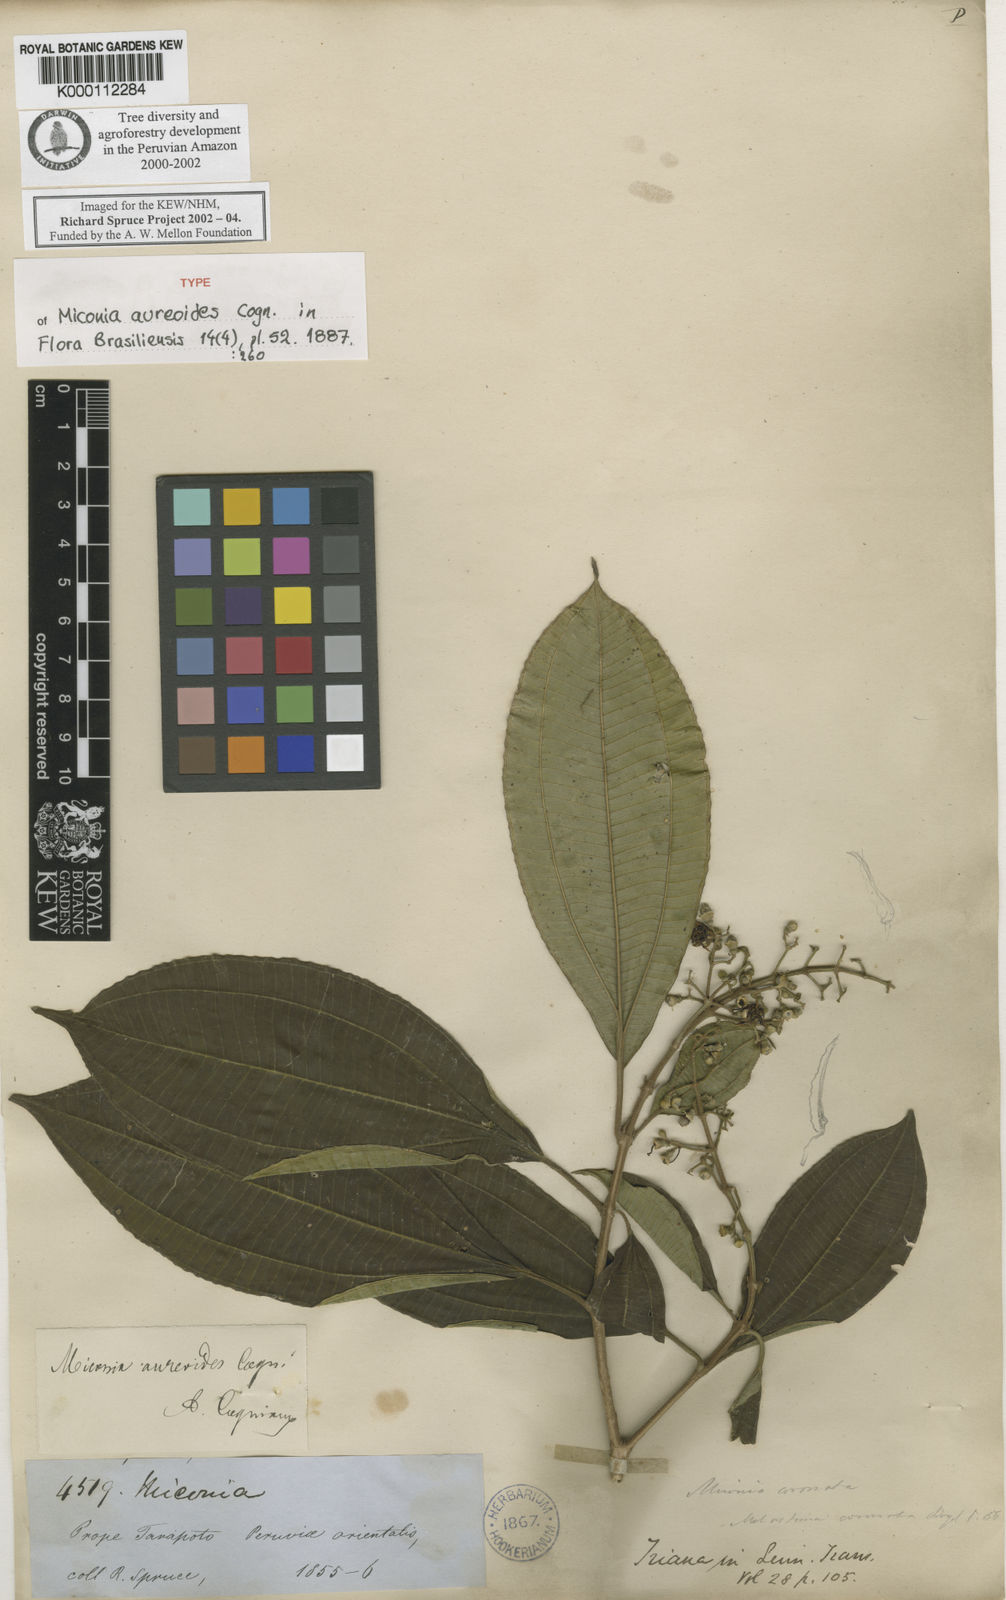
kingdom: Plantae
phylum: Tracheophyta
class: Magnoliopsida
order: Myrtales
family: Melastomataceae
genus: Miconia
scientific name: Miconia aureoides
